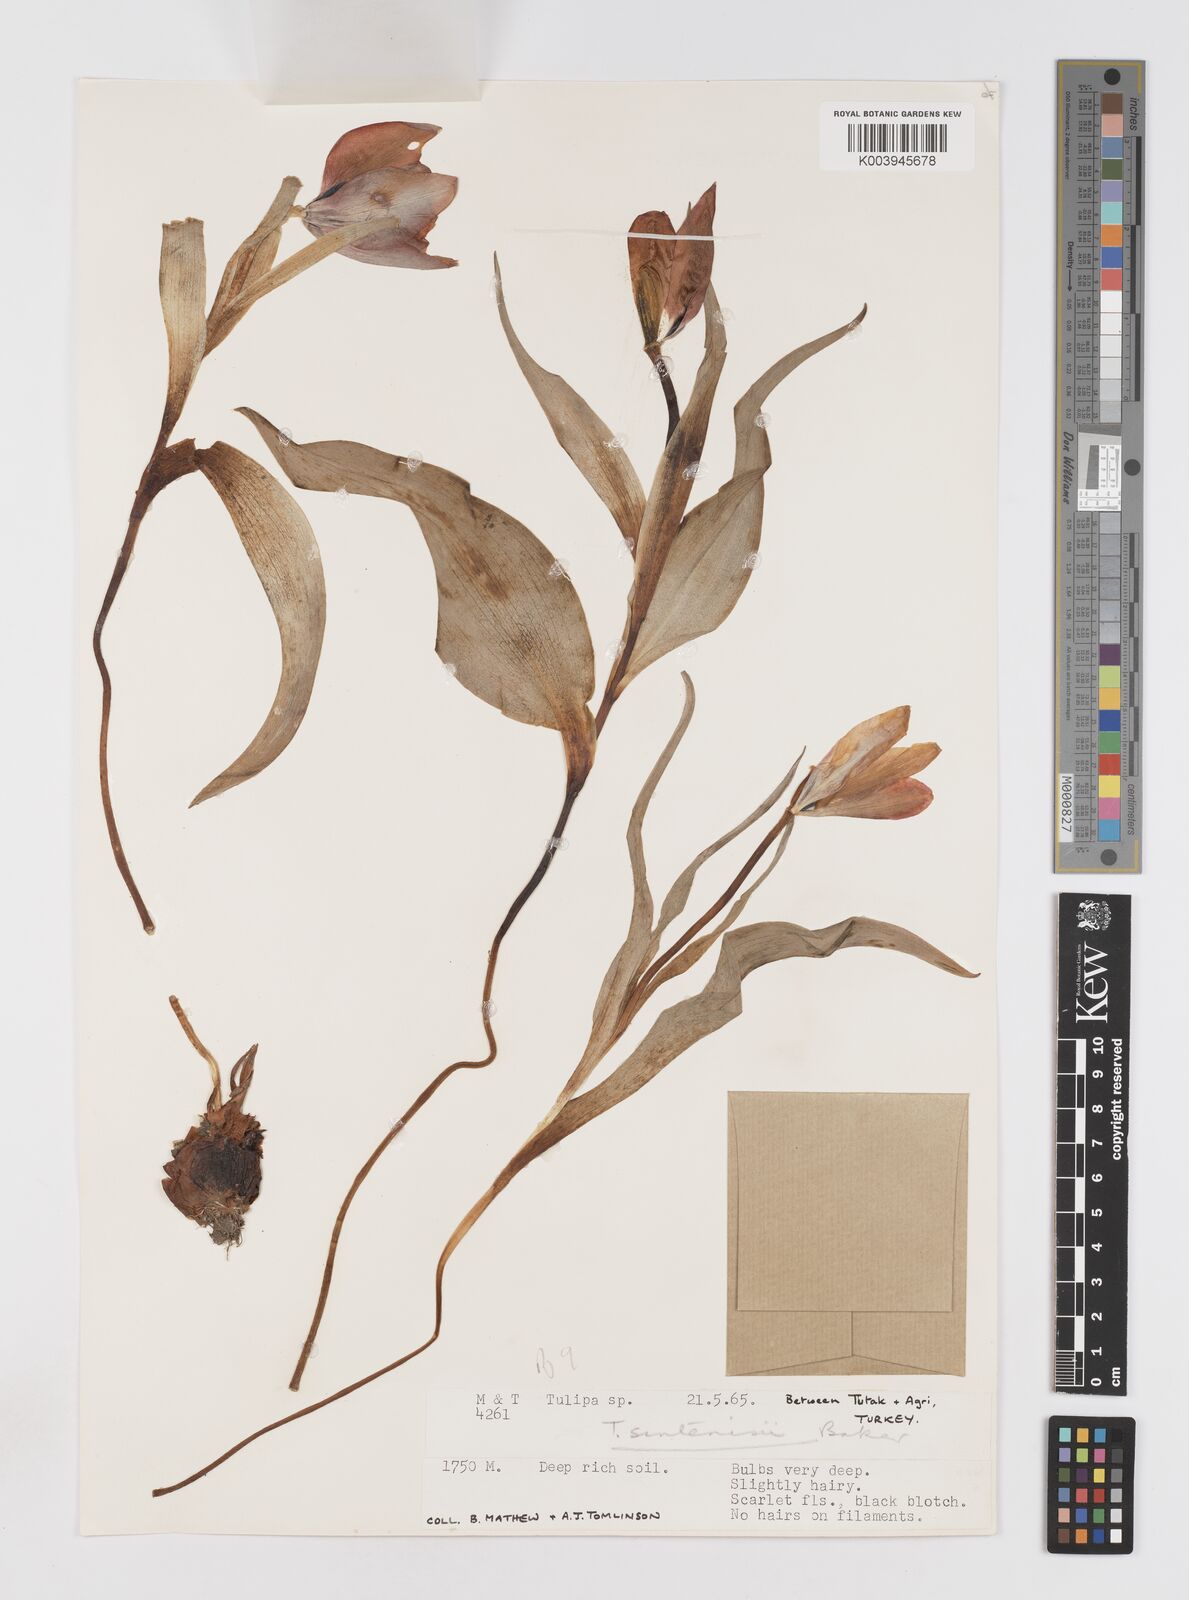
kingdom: Plantae
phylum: Tracheophyta
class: Liliopsida
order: Liliales
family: Liliaceae
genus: Tulipa
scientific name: Tulipa aleppensis
